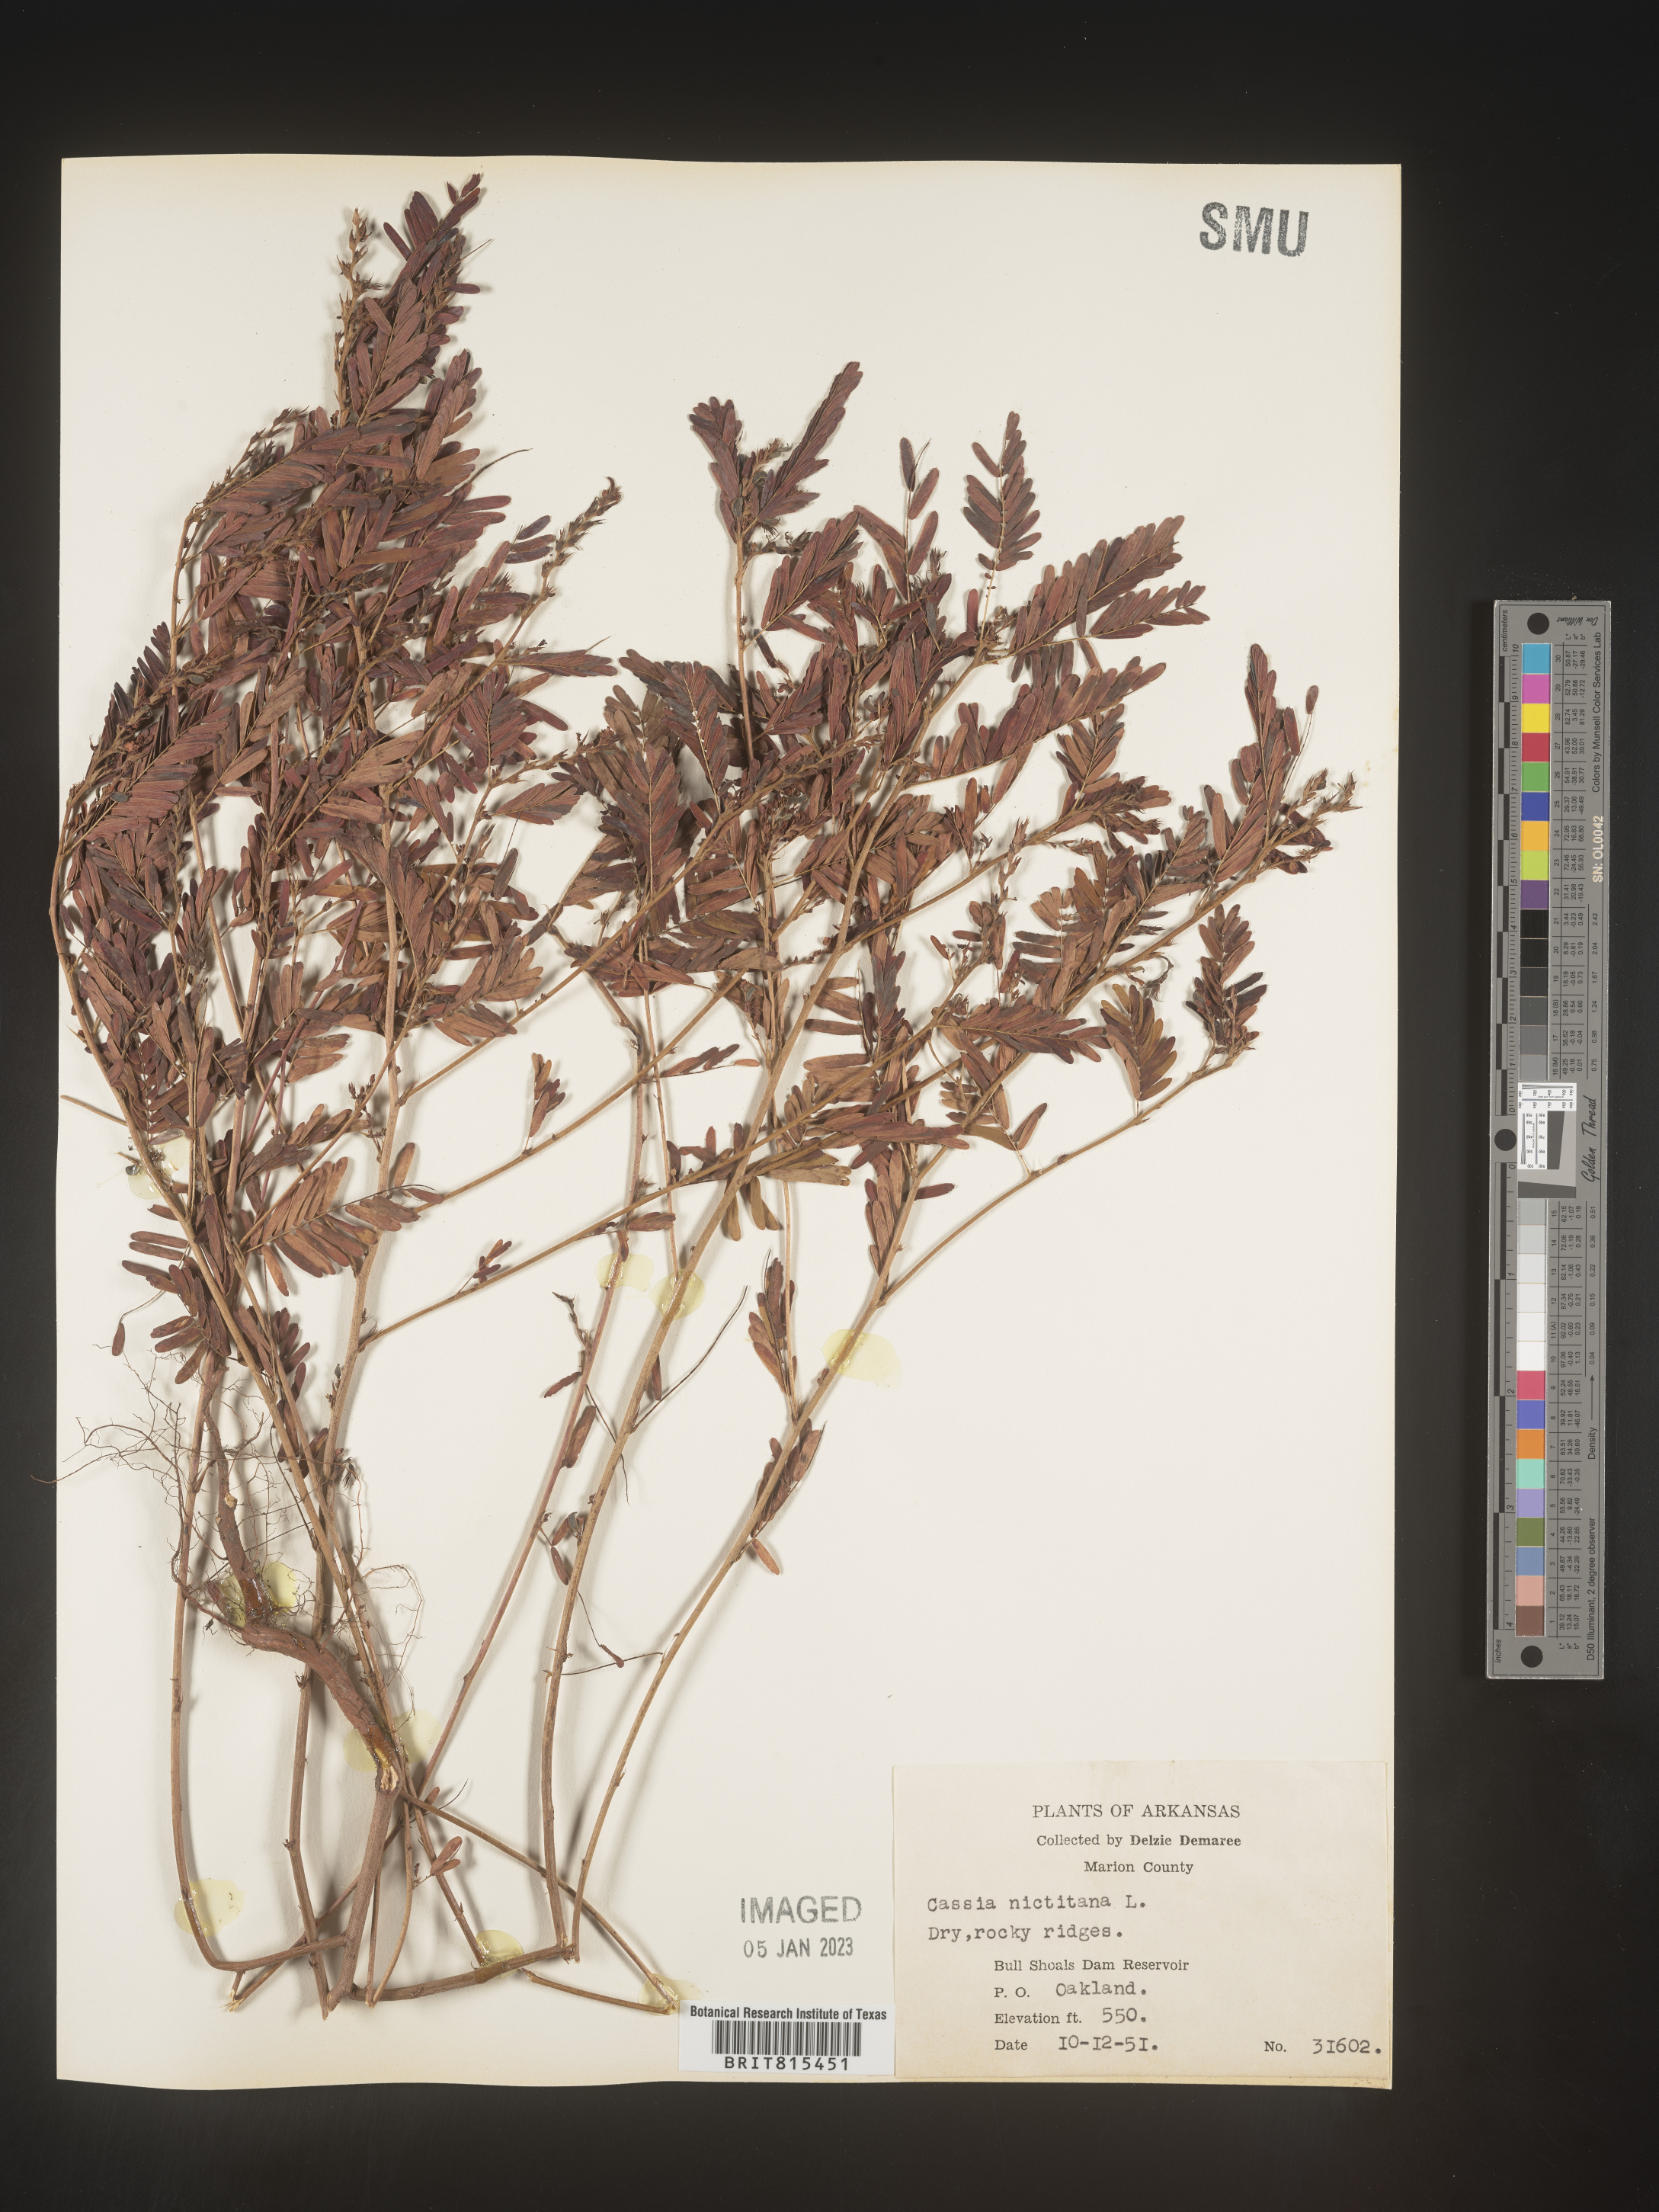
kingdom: Plantae
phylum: Tracheophyta
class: Magnoliopsida
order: Fabales
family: Fabaceae
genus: Chamaecrista
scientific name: Chamaecrista nictitans
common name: Sensitive cassia
